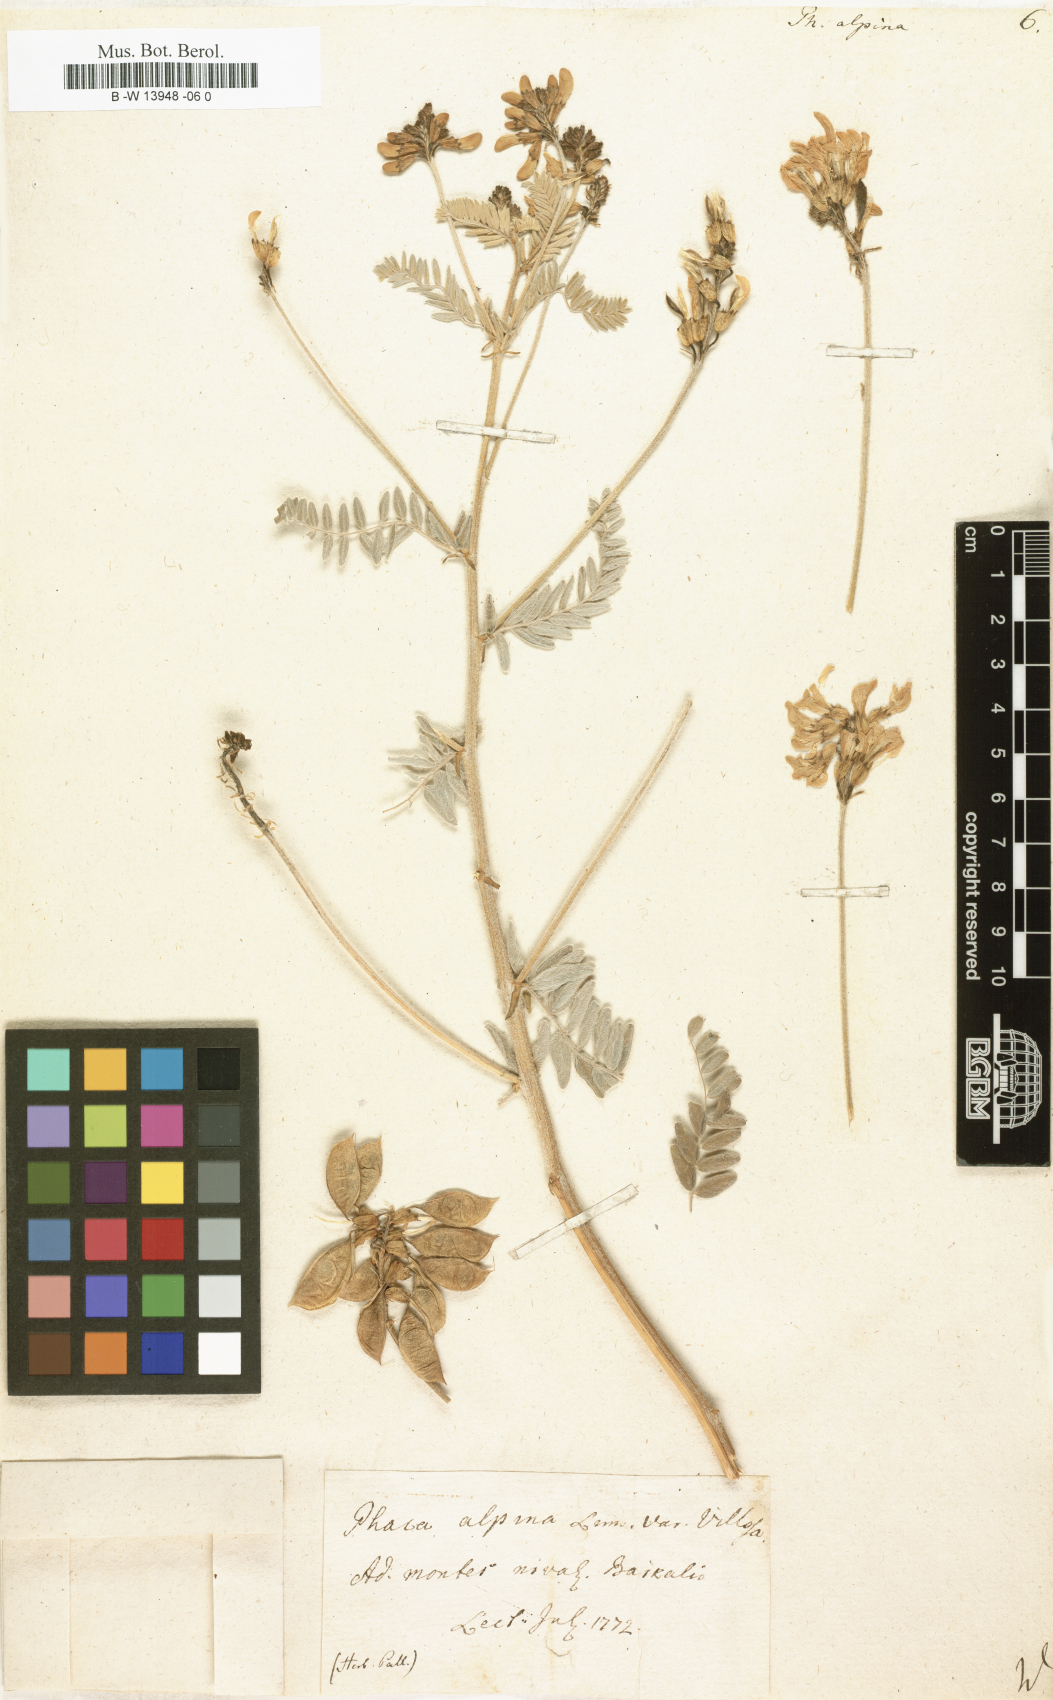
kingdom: Plantae
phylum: Tracheophyta
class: Magnoliopsida
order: Fabales
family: Fabaceae
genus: Astragalus
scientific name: Astragalus
